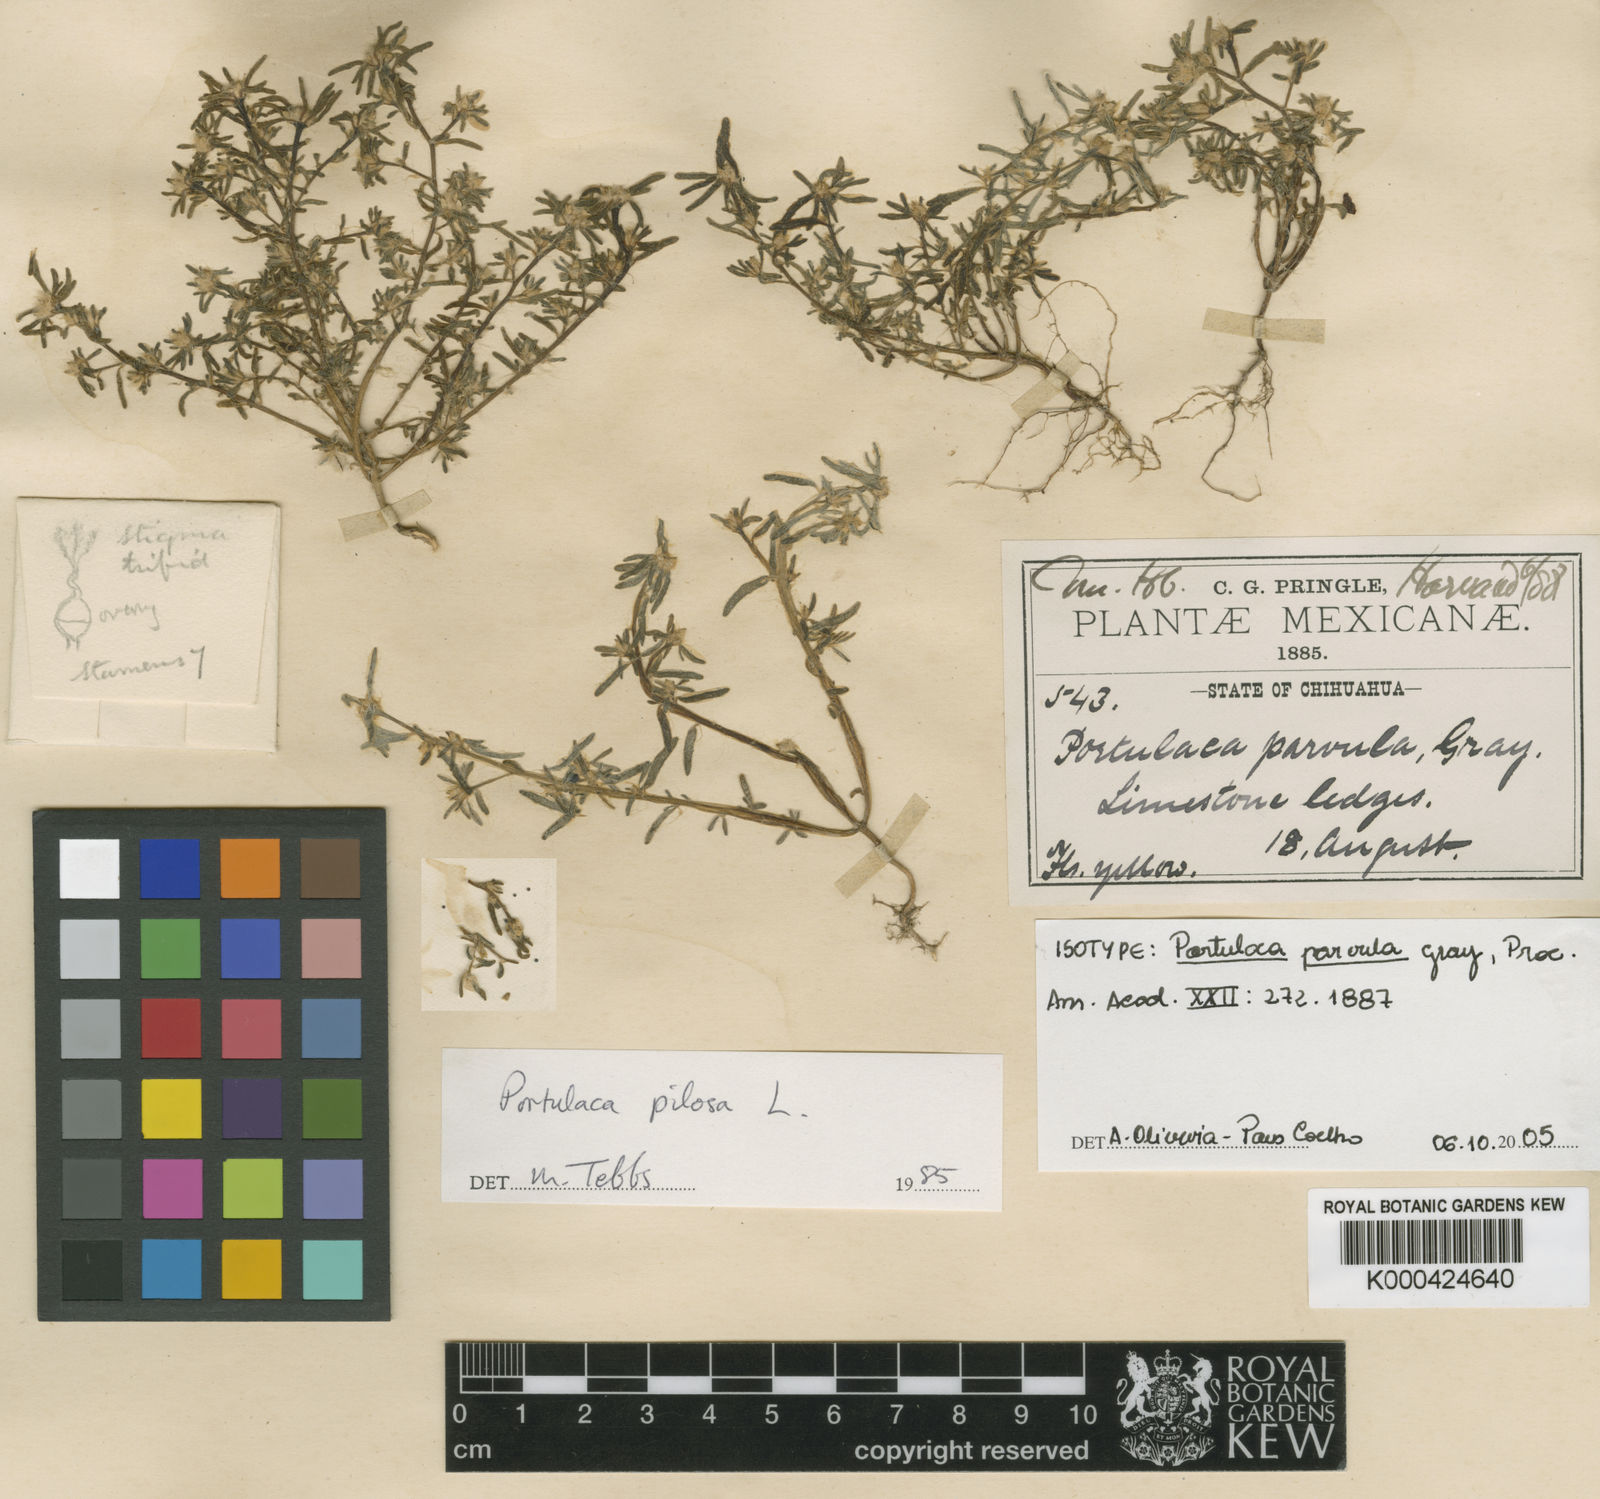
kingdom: Plantae
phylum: Tracheophyta
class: Magnoliopsida
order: Caryophyllales
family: Portulacaceae
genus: Portulaca
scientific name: Portulaca halimoides
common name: Silk cotton purslane
